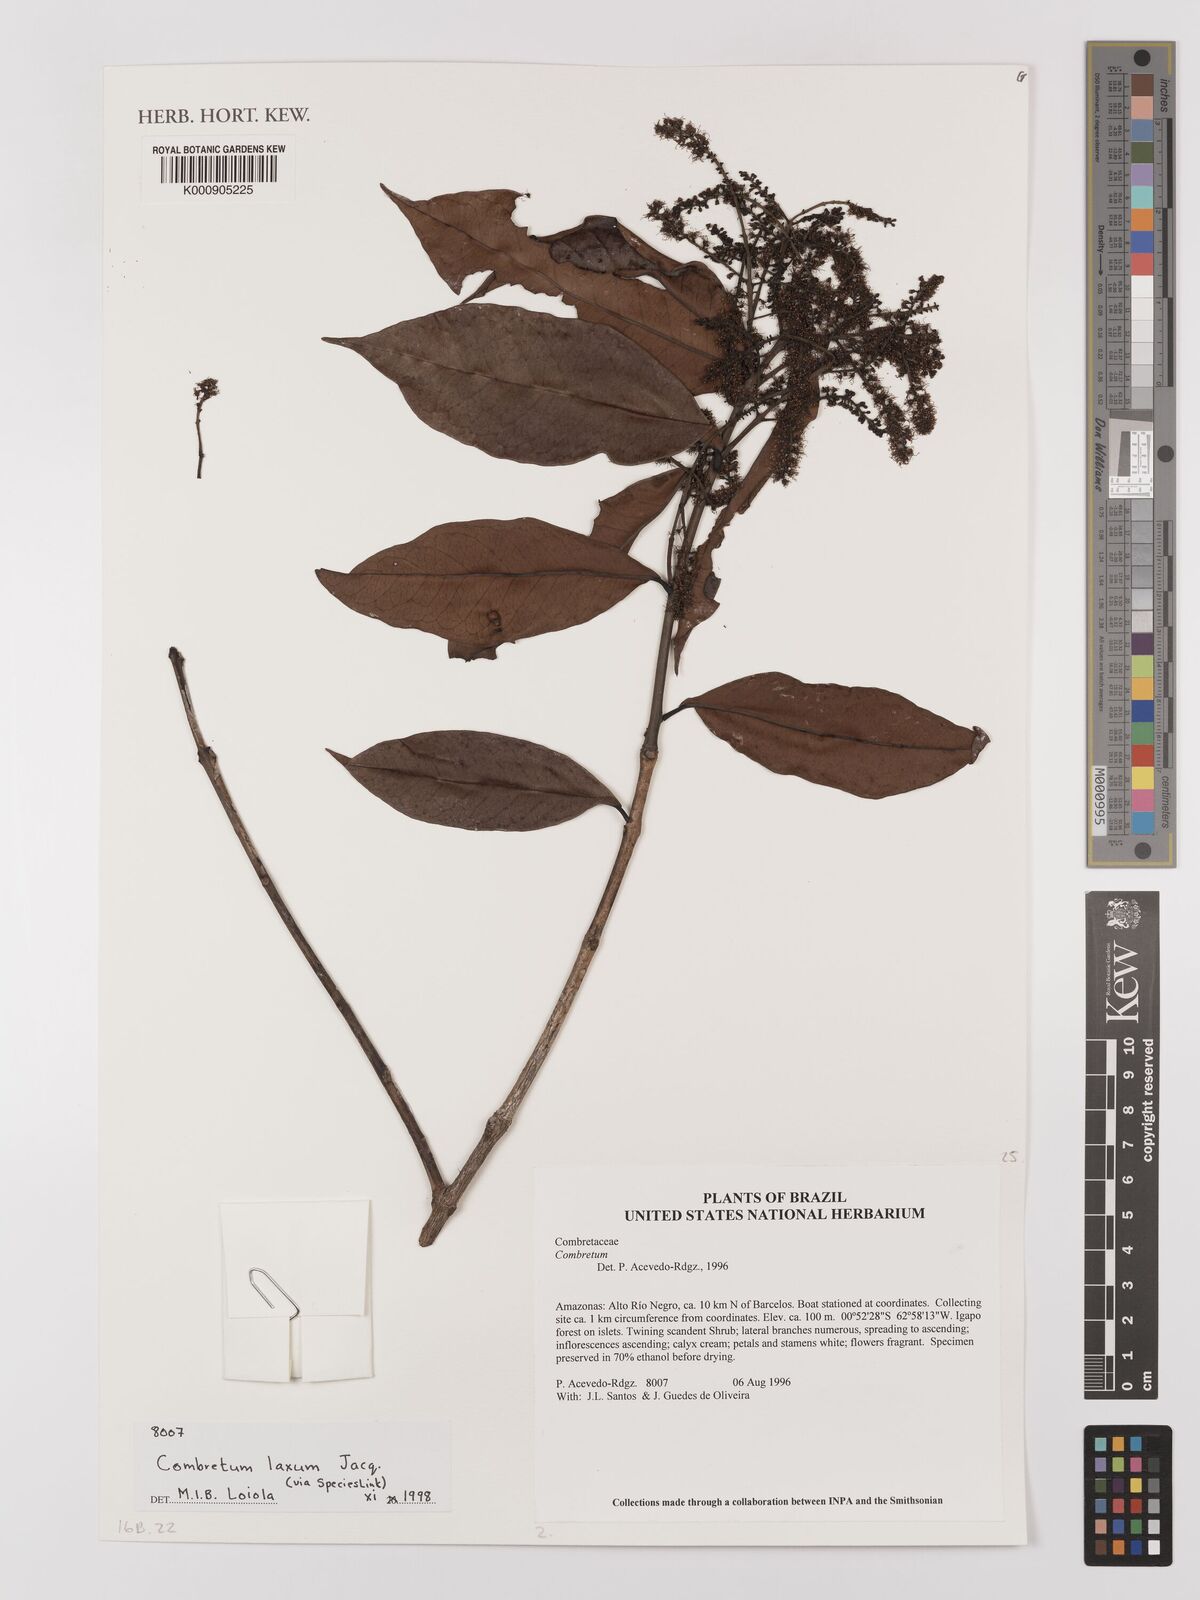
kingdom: Plantae
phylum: Tracheophyta
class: Magnoliopsida
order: Myrtales
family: Combretaceae
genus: Combretum
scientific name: Combretum laxum
